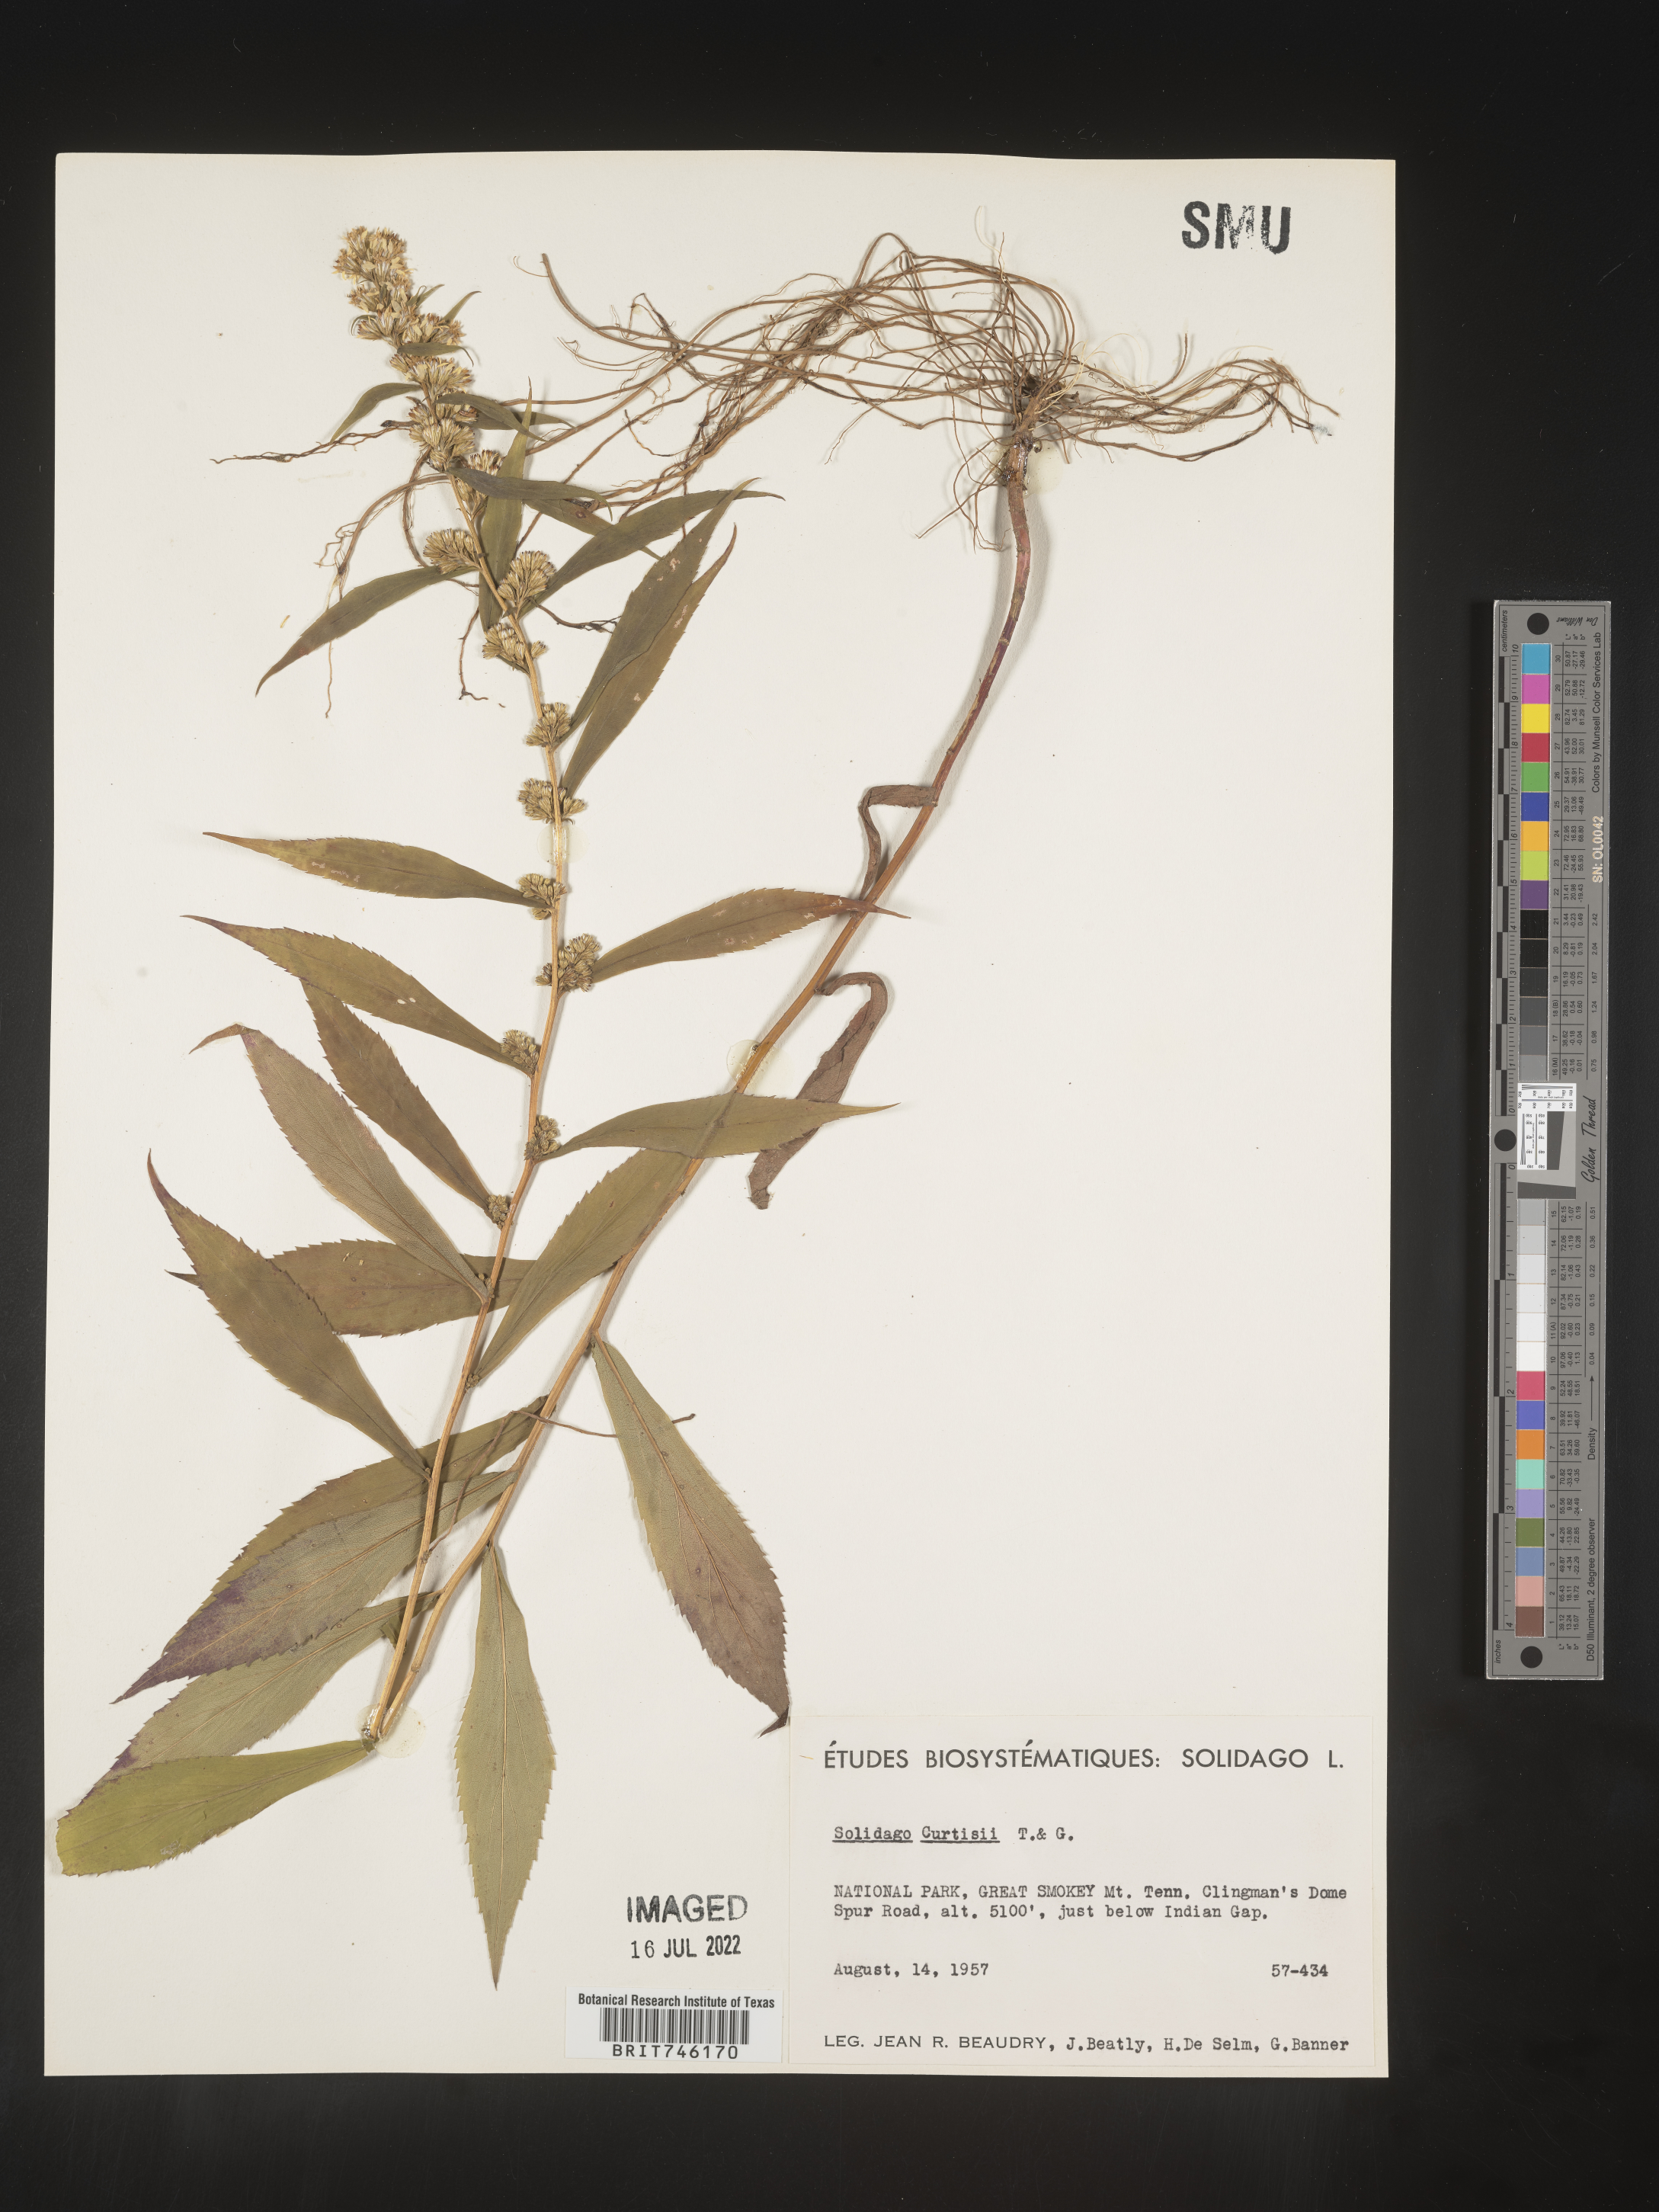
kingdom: Plantae
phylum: Tracheophyta
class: Magnoliopsida
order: Asterales
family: Asteraceae
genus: Solidago
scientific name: Solidago curtisii
